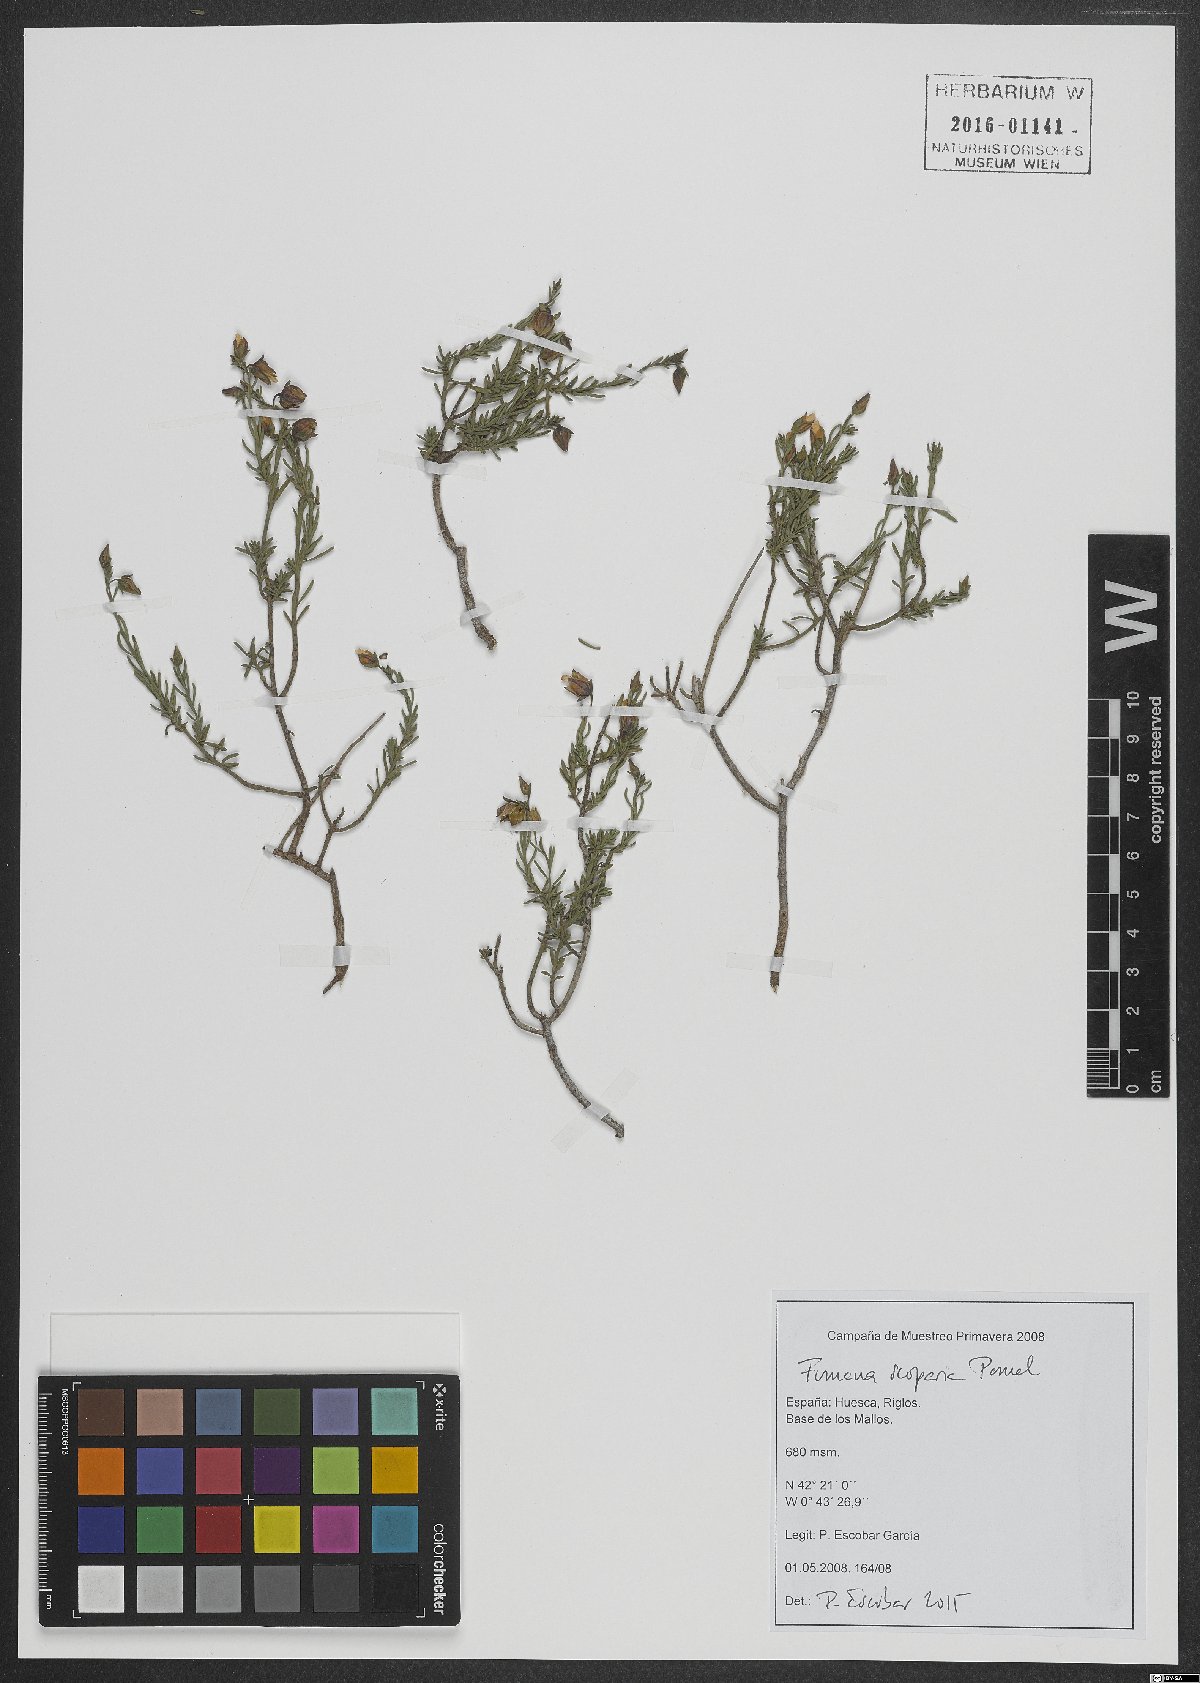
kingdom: Plantae
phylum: Tracheophyta
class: Magnoliopsida
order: Malvales
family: Cistaceae
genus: Fumana
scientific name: Fumana scoparia
